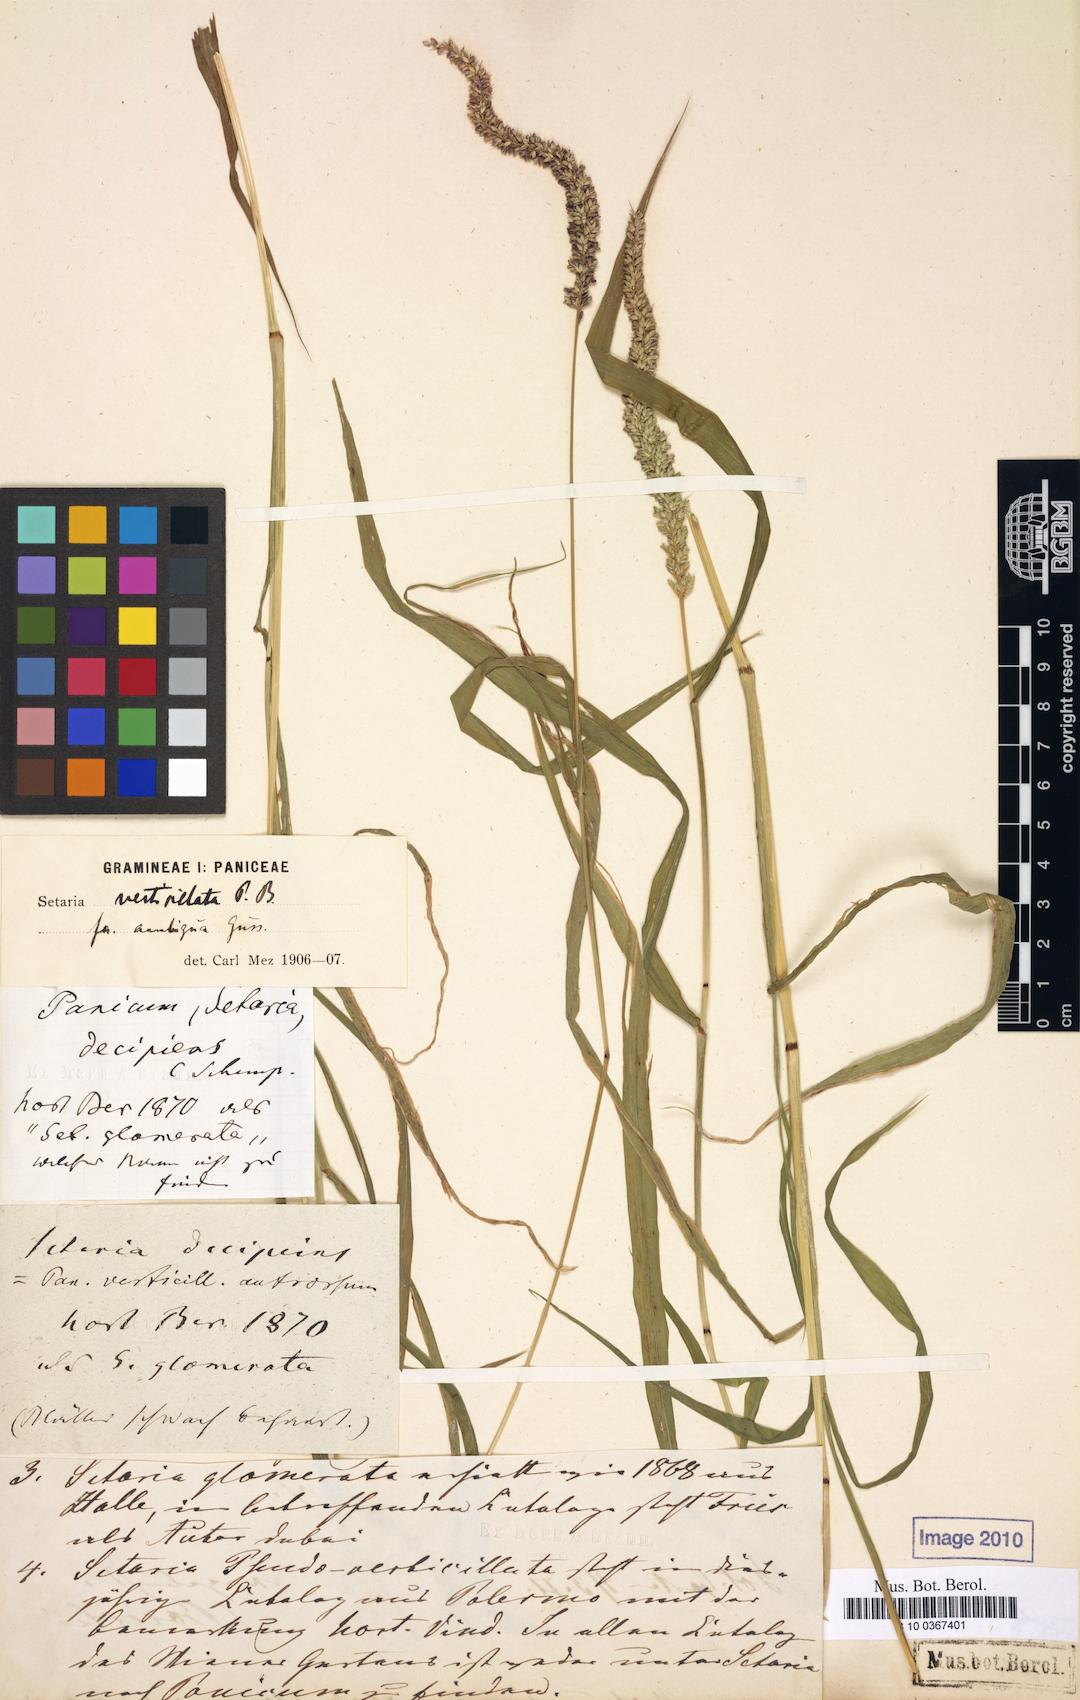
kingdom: Plantae
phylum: Tracheophyta
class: Liliopsida
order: Poales
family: Poaceae
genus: Setaria
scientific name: Setaria verticillata
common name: Hooked bristlegrass
